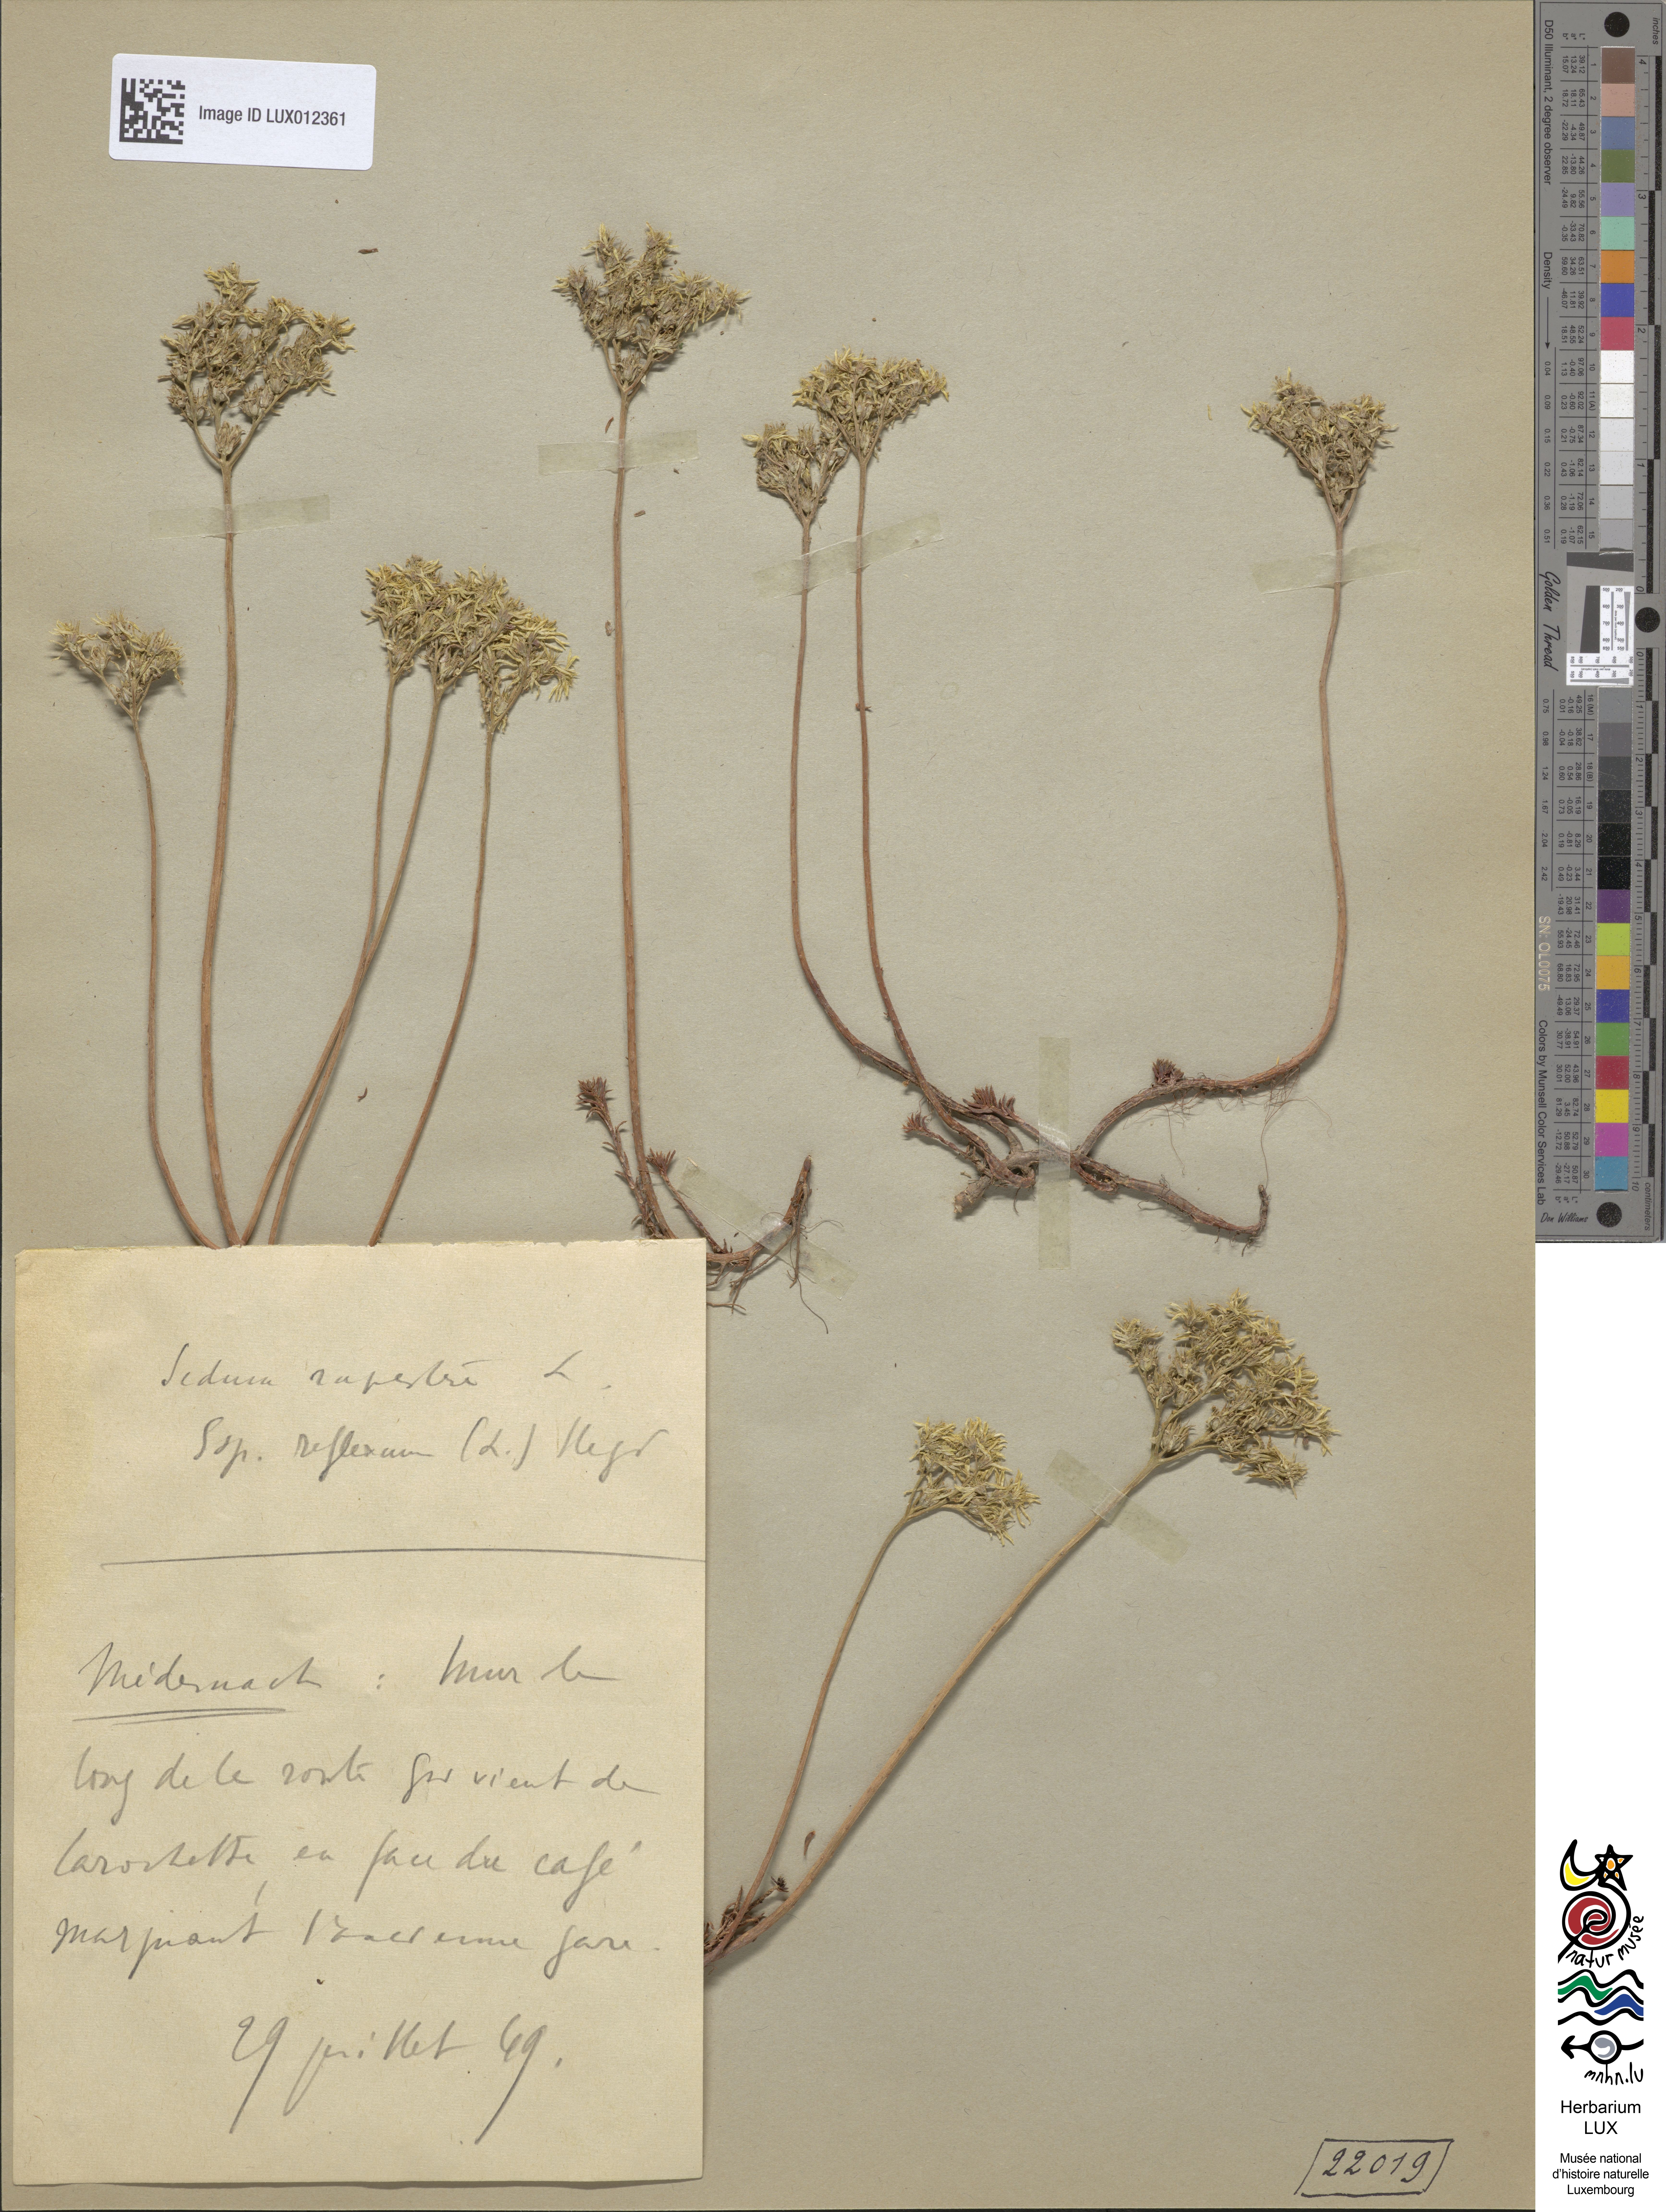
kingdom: Plantae
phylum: Tracheophyta
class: Magnoliopsida
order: Saxifragales
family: Crassulaceae
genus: Petrosedum
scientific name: Petrosedum rupestre
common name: Jenny's stonecrop
